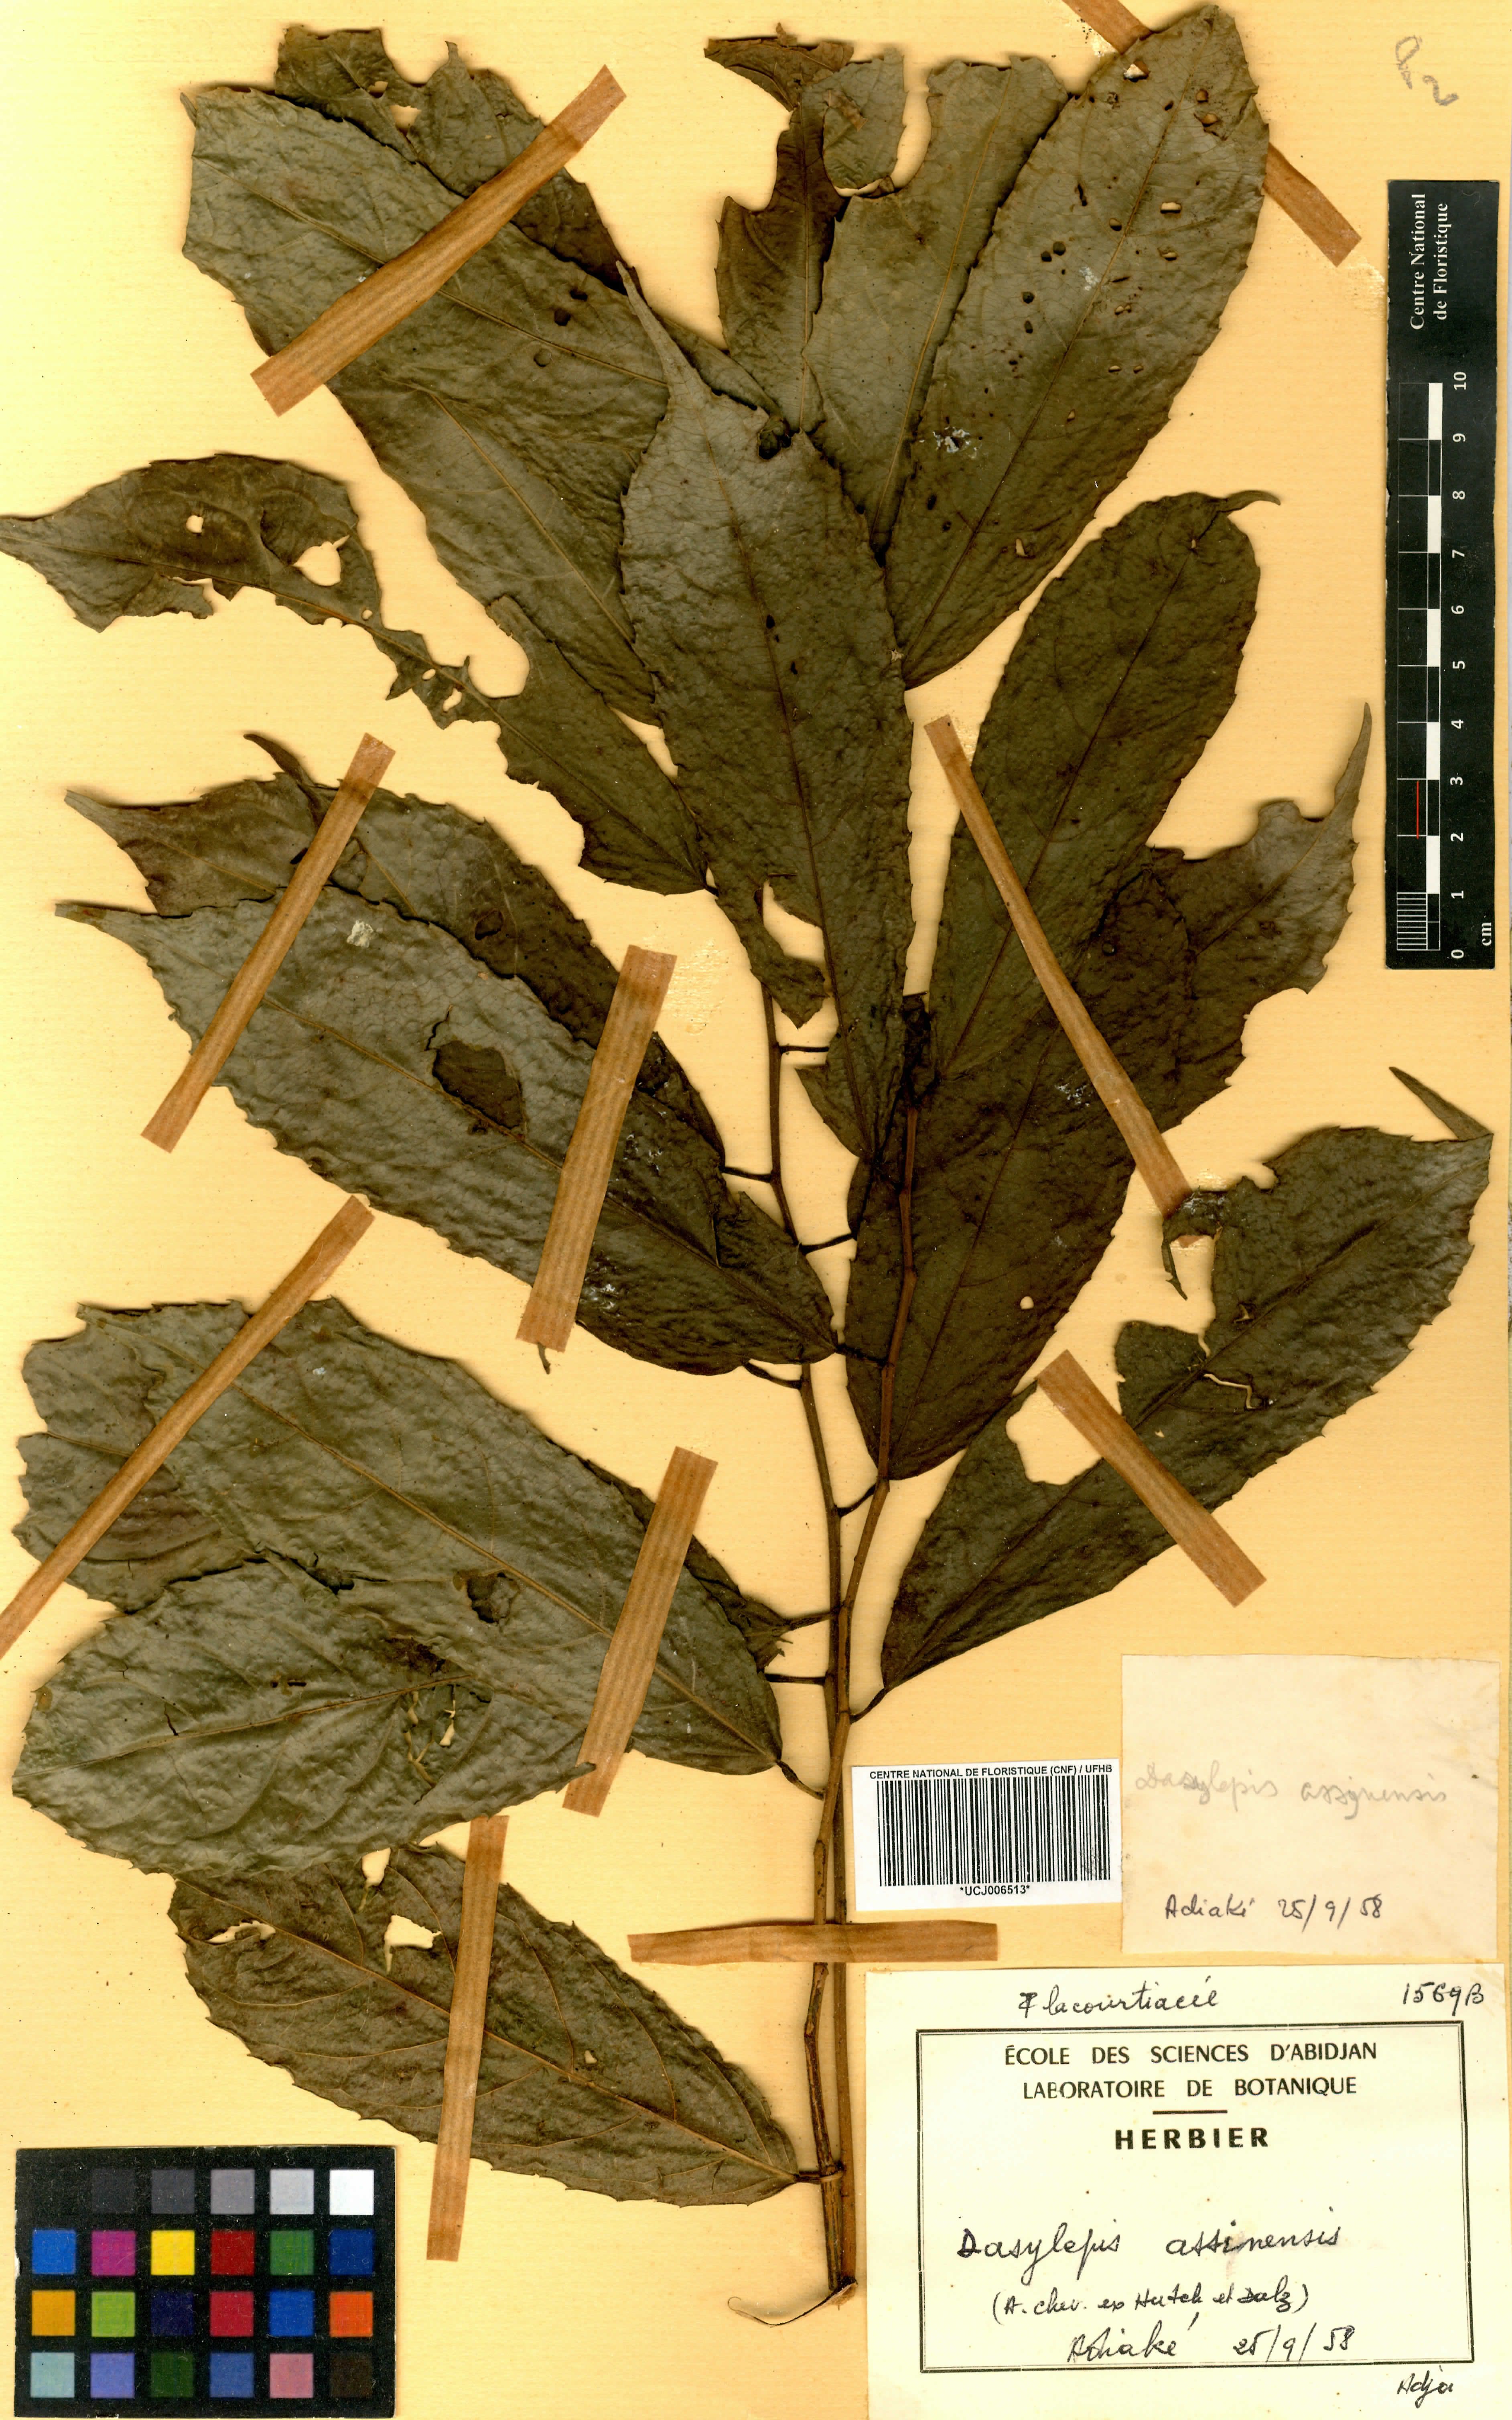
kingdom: Plantae
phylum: Tracheophyta
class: Magnoliopsida
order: Malpighiales
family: Achariaceae
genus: Dasylepis
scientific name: Dasylepis racemosa
